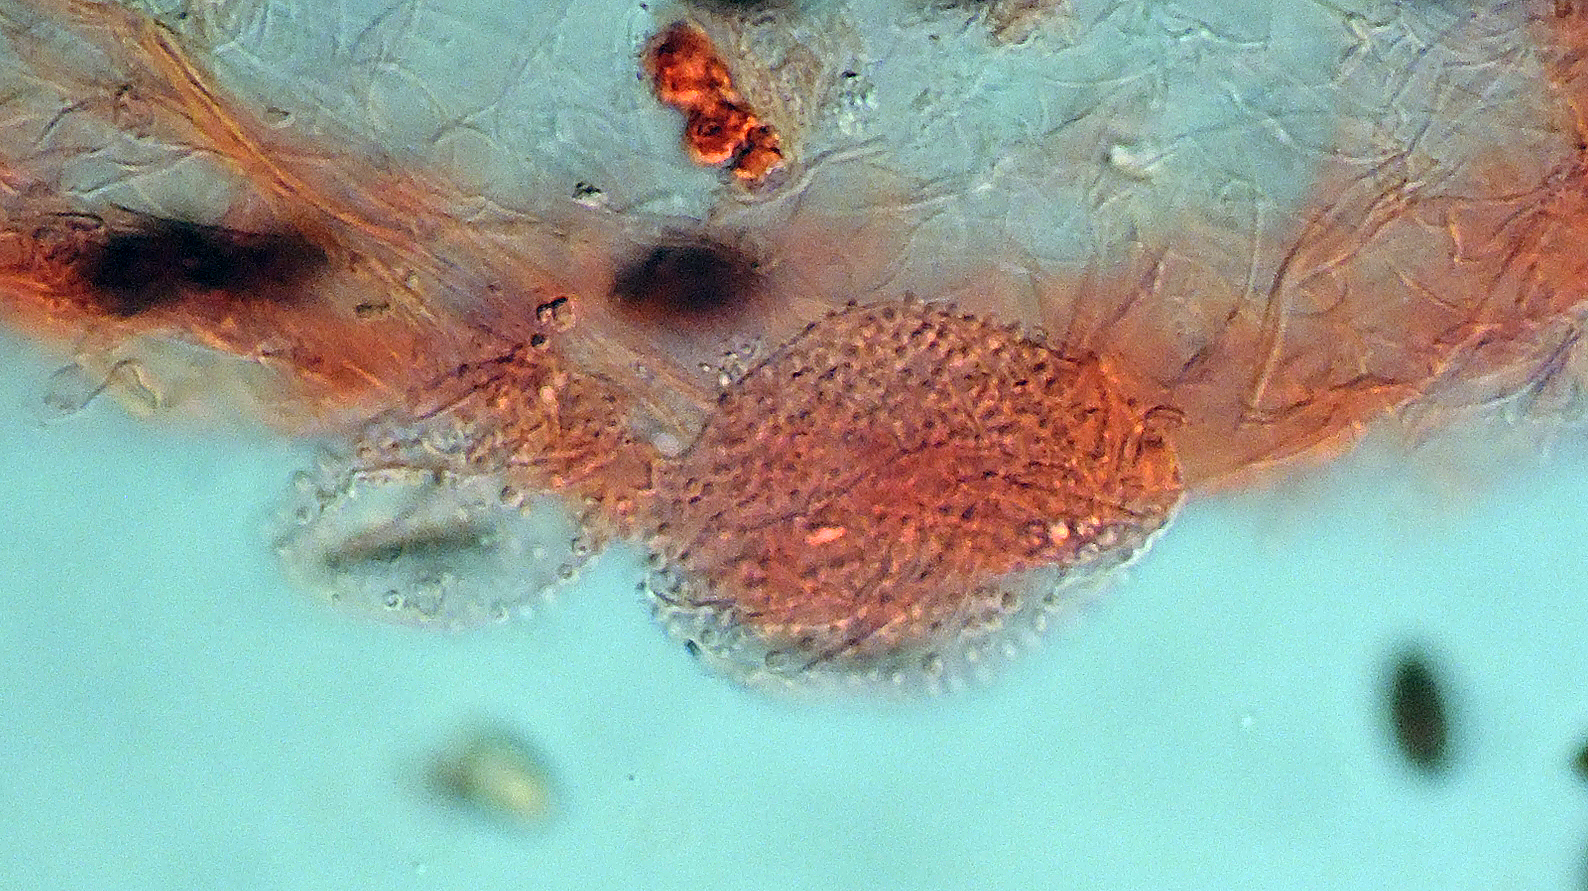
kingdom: Fungi
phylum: Basidiomycota
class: Agaricomycetes
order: Agaricales
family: Psathyrellaceae
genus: Coprinopsis
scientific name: Coprinopsis
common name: blækhat
